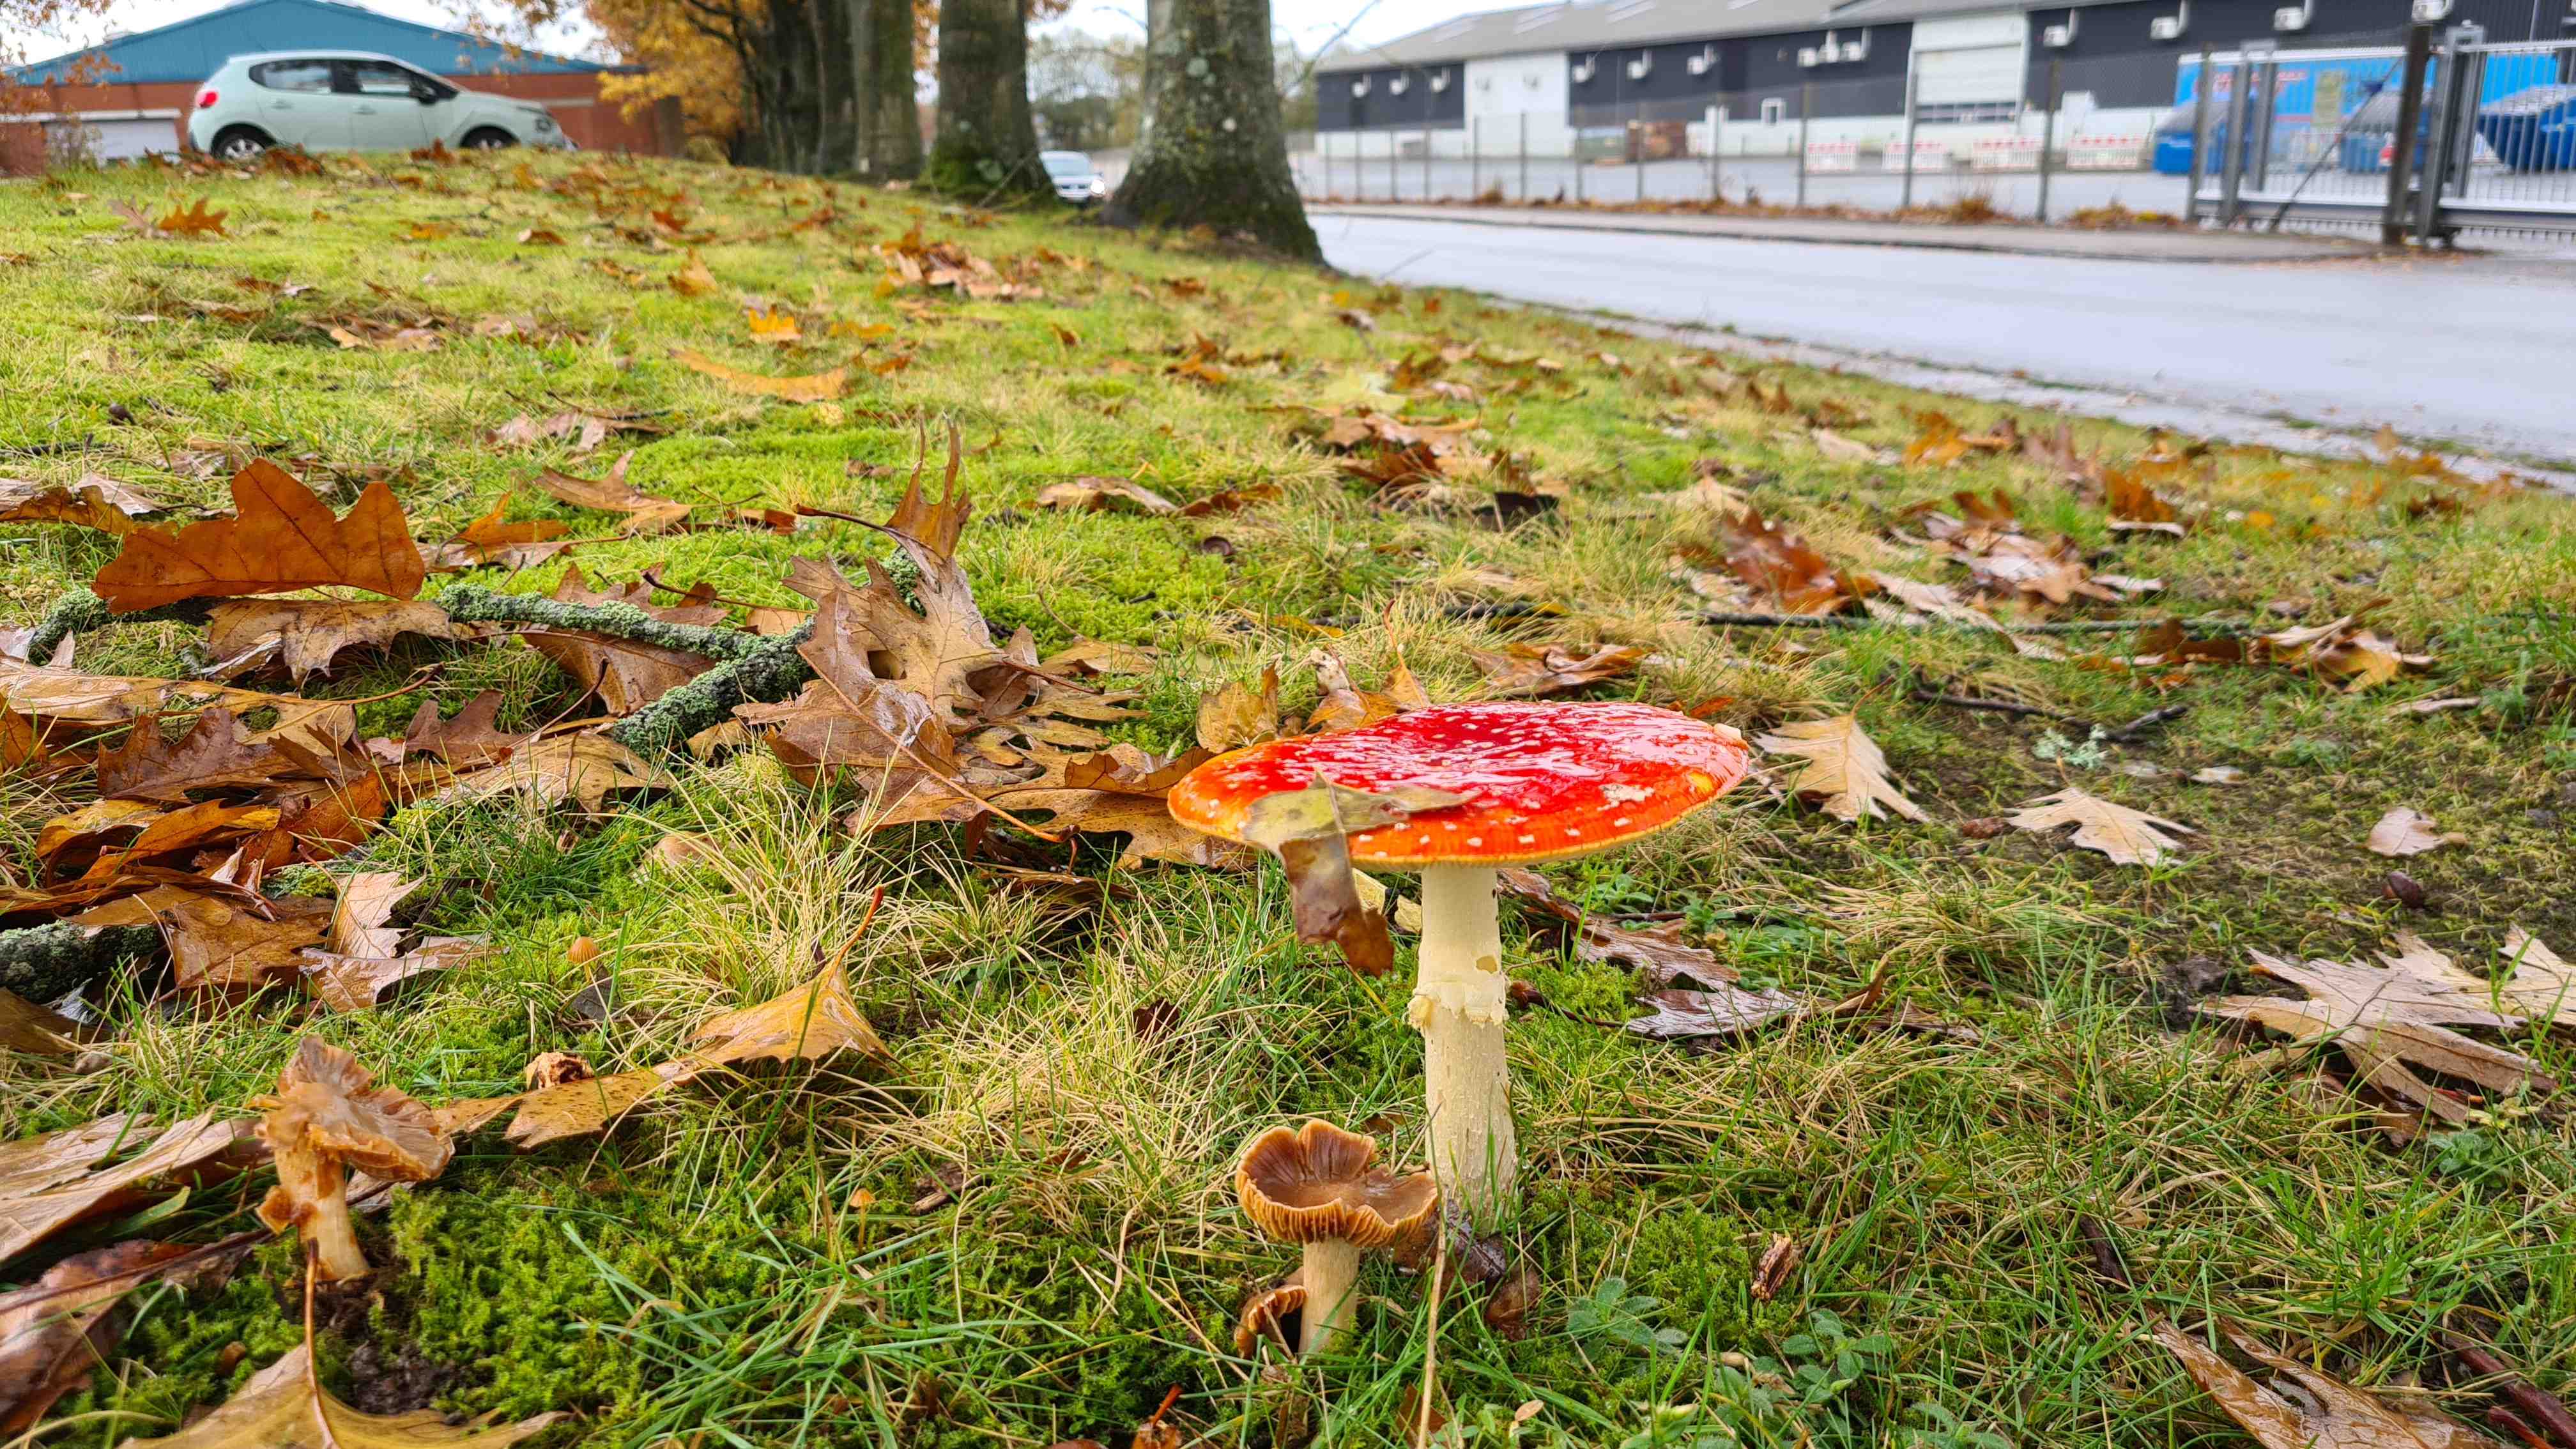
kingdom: Fungi
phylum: Basidiomycota
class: Agaricomycetes
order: Agaricales
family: Amanitaceae
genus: Amanita
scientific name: Amanita muscaria
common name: rød fluesvamp
